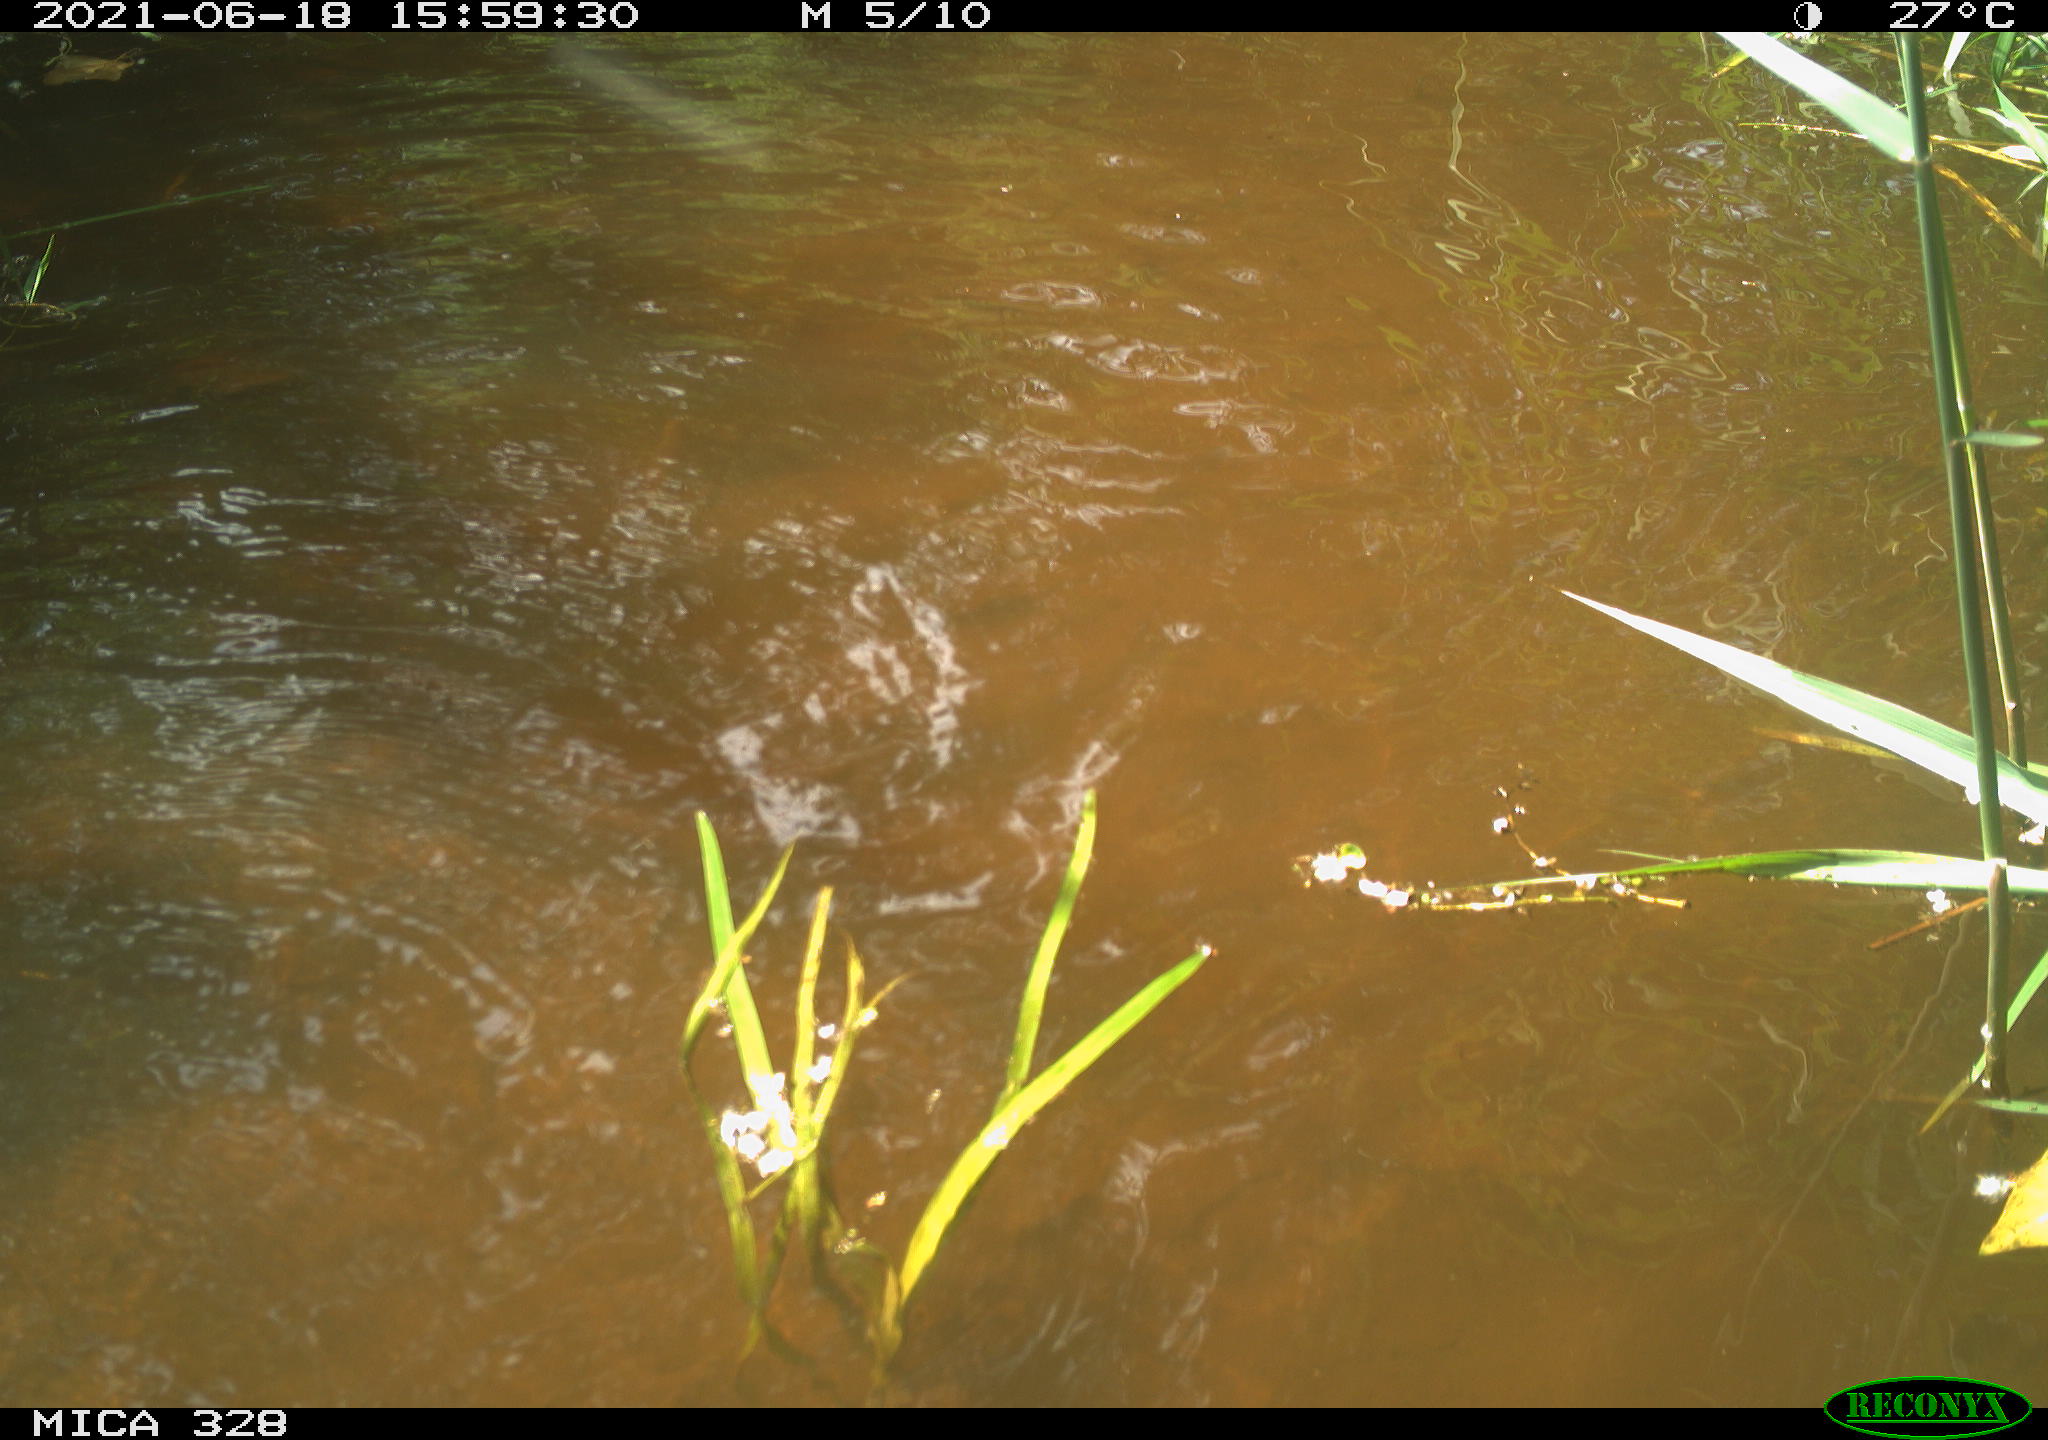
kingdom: Animalia
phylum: Chordata
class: Mammalia
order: Rodentia
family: Cricetidae
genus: Ondatra
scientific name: Ondatra zibethicus
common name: Muskrat
